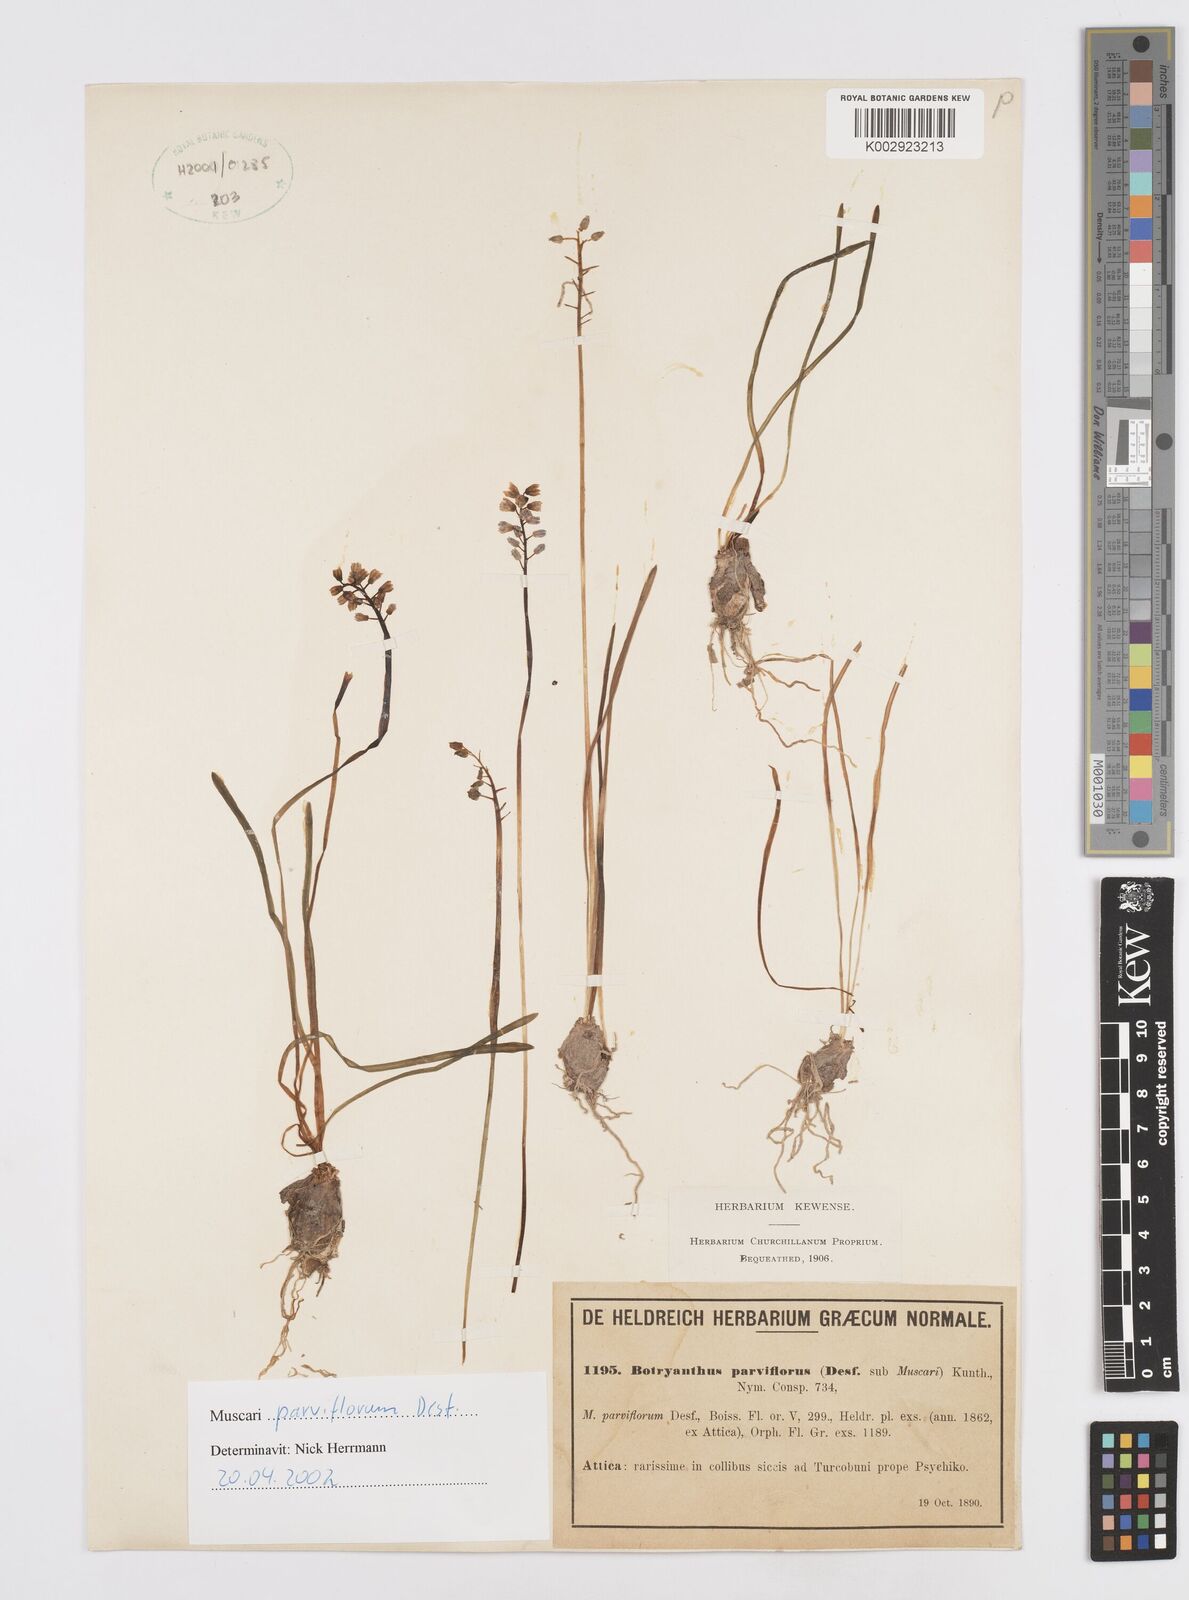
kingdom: Plantae
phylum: Tracheophyta
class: Liliopsida
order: Asparagales
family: Asparagaceae
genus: Muscari
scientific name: Muscari parviflorum
